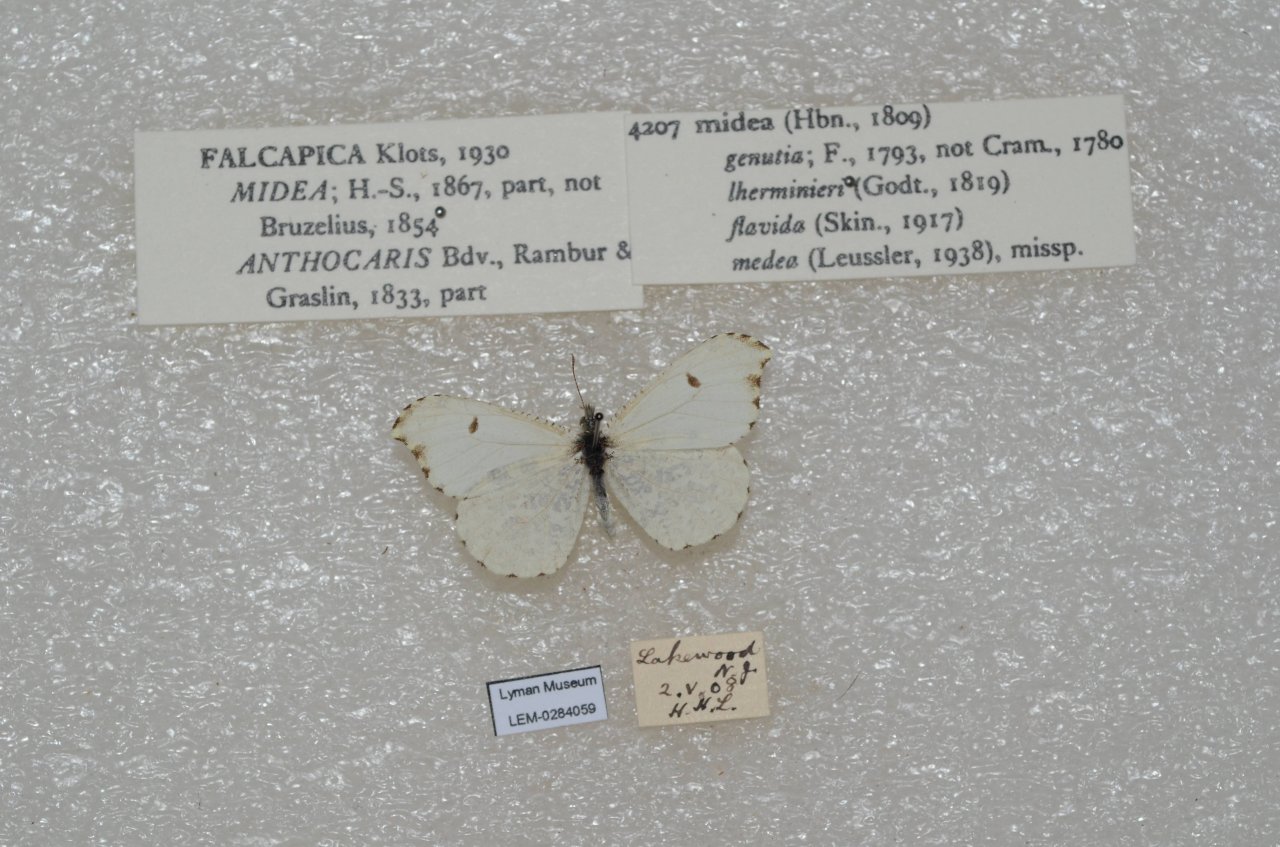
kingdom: Animalia
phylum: Arthropoda
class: Insecta
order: Lepidoptera
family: Pieridae
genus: Anthocharis
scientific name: Anthocharis midea
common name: Falcate Orangetip
